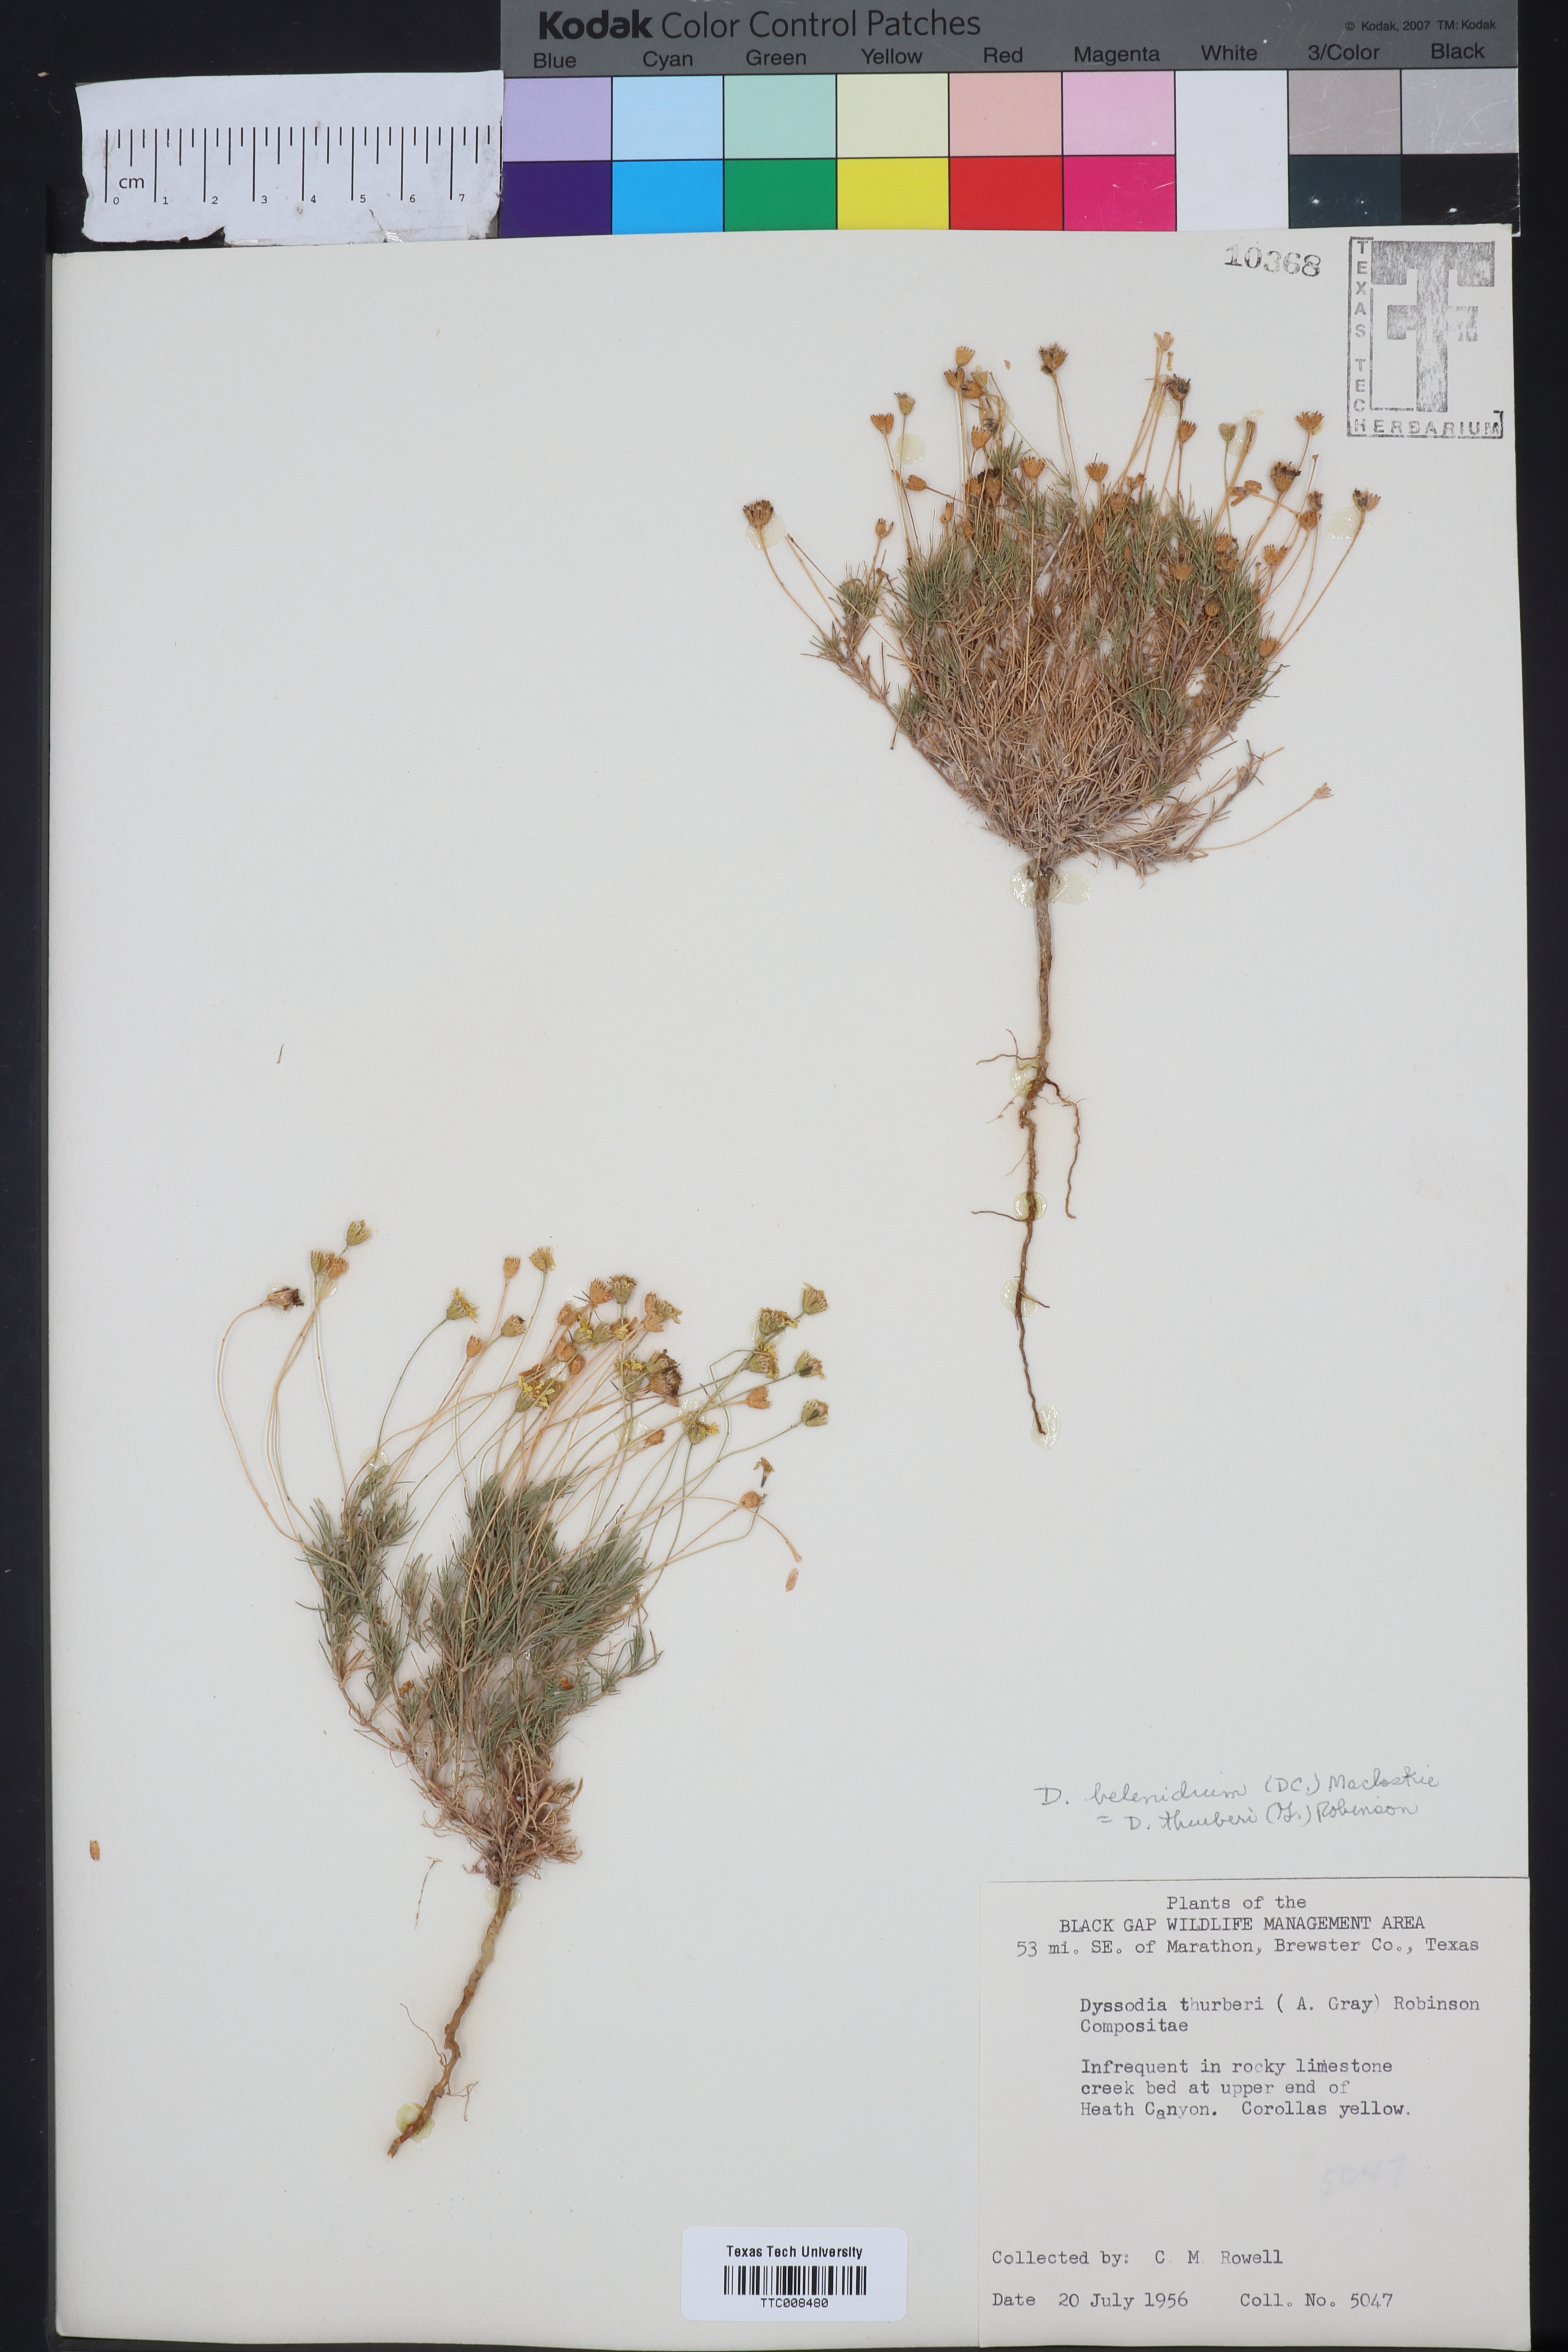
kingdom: Plantae
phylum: Tracheophyta
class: Magnoliopsida
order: Asterales
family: Asteraceae
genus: Thymophylla
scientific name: Thymophylla pentachaeta
